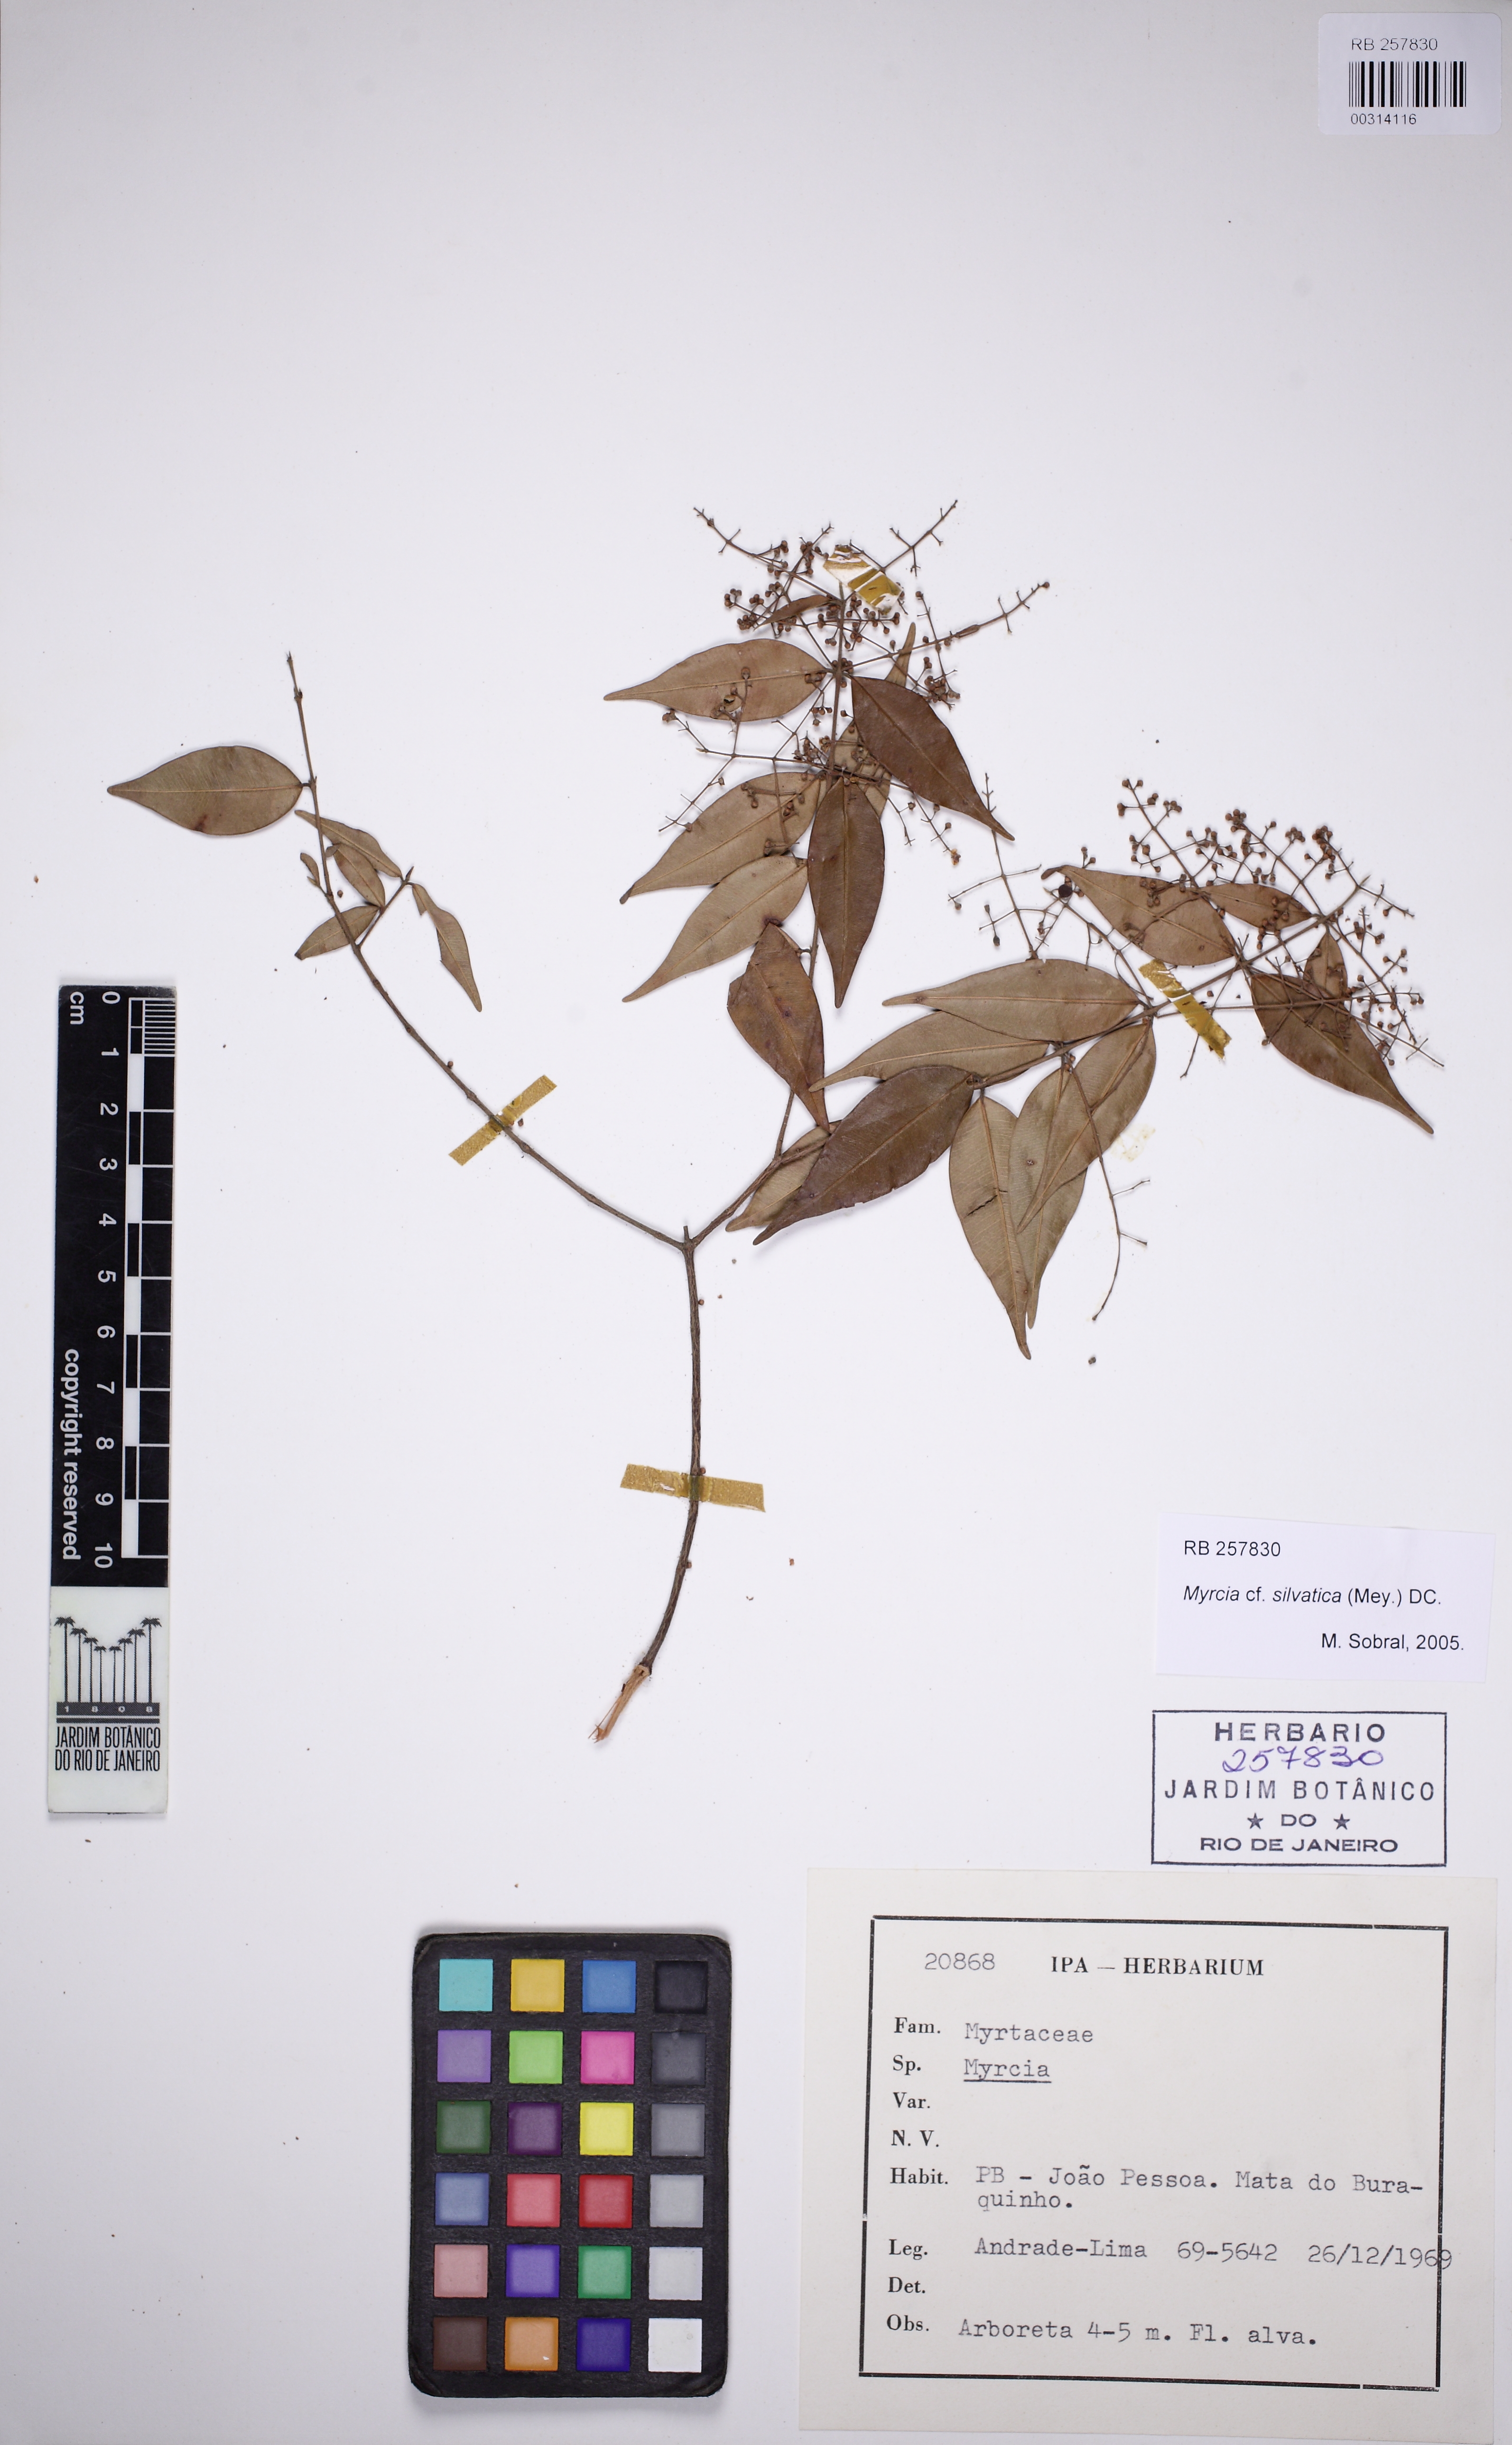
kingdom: Plantae
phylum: Tracheophyta
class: Magnoliopsida
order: Myrtales
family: Myrtaceae
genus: Myrcia
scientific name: Myrcia sylvatica
